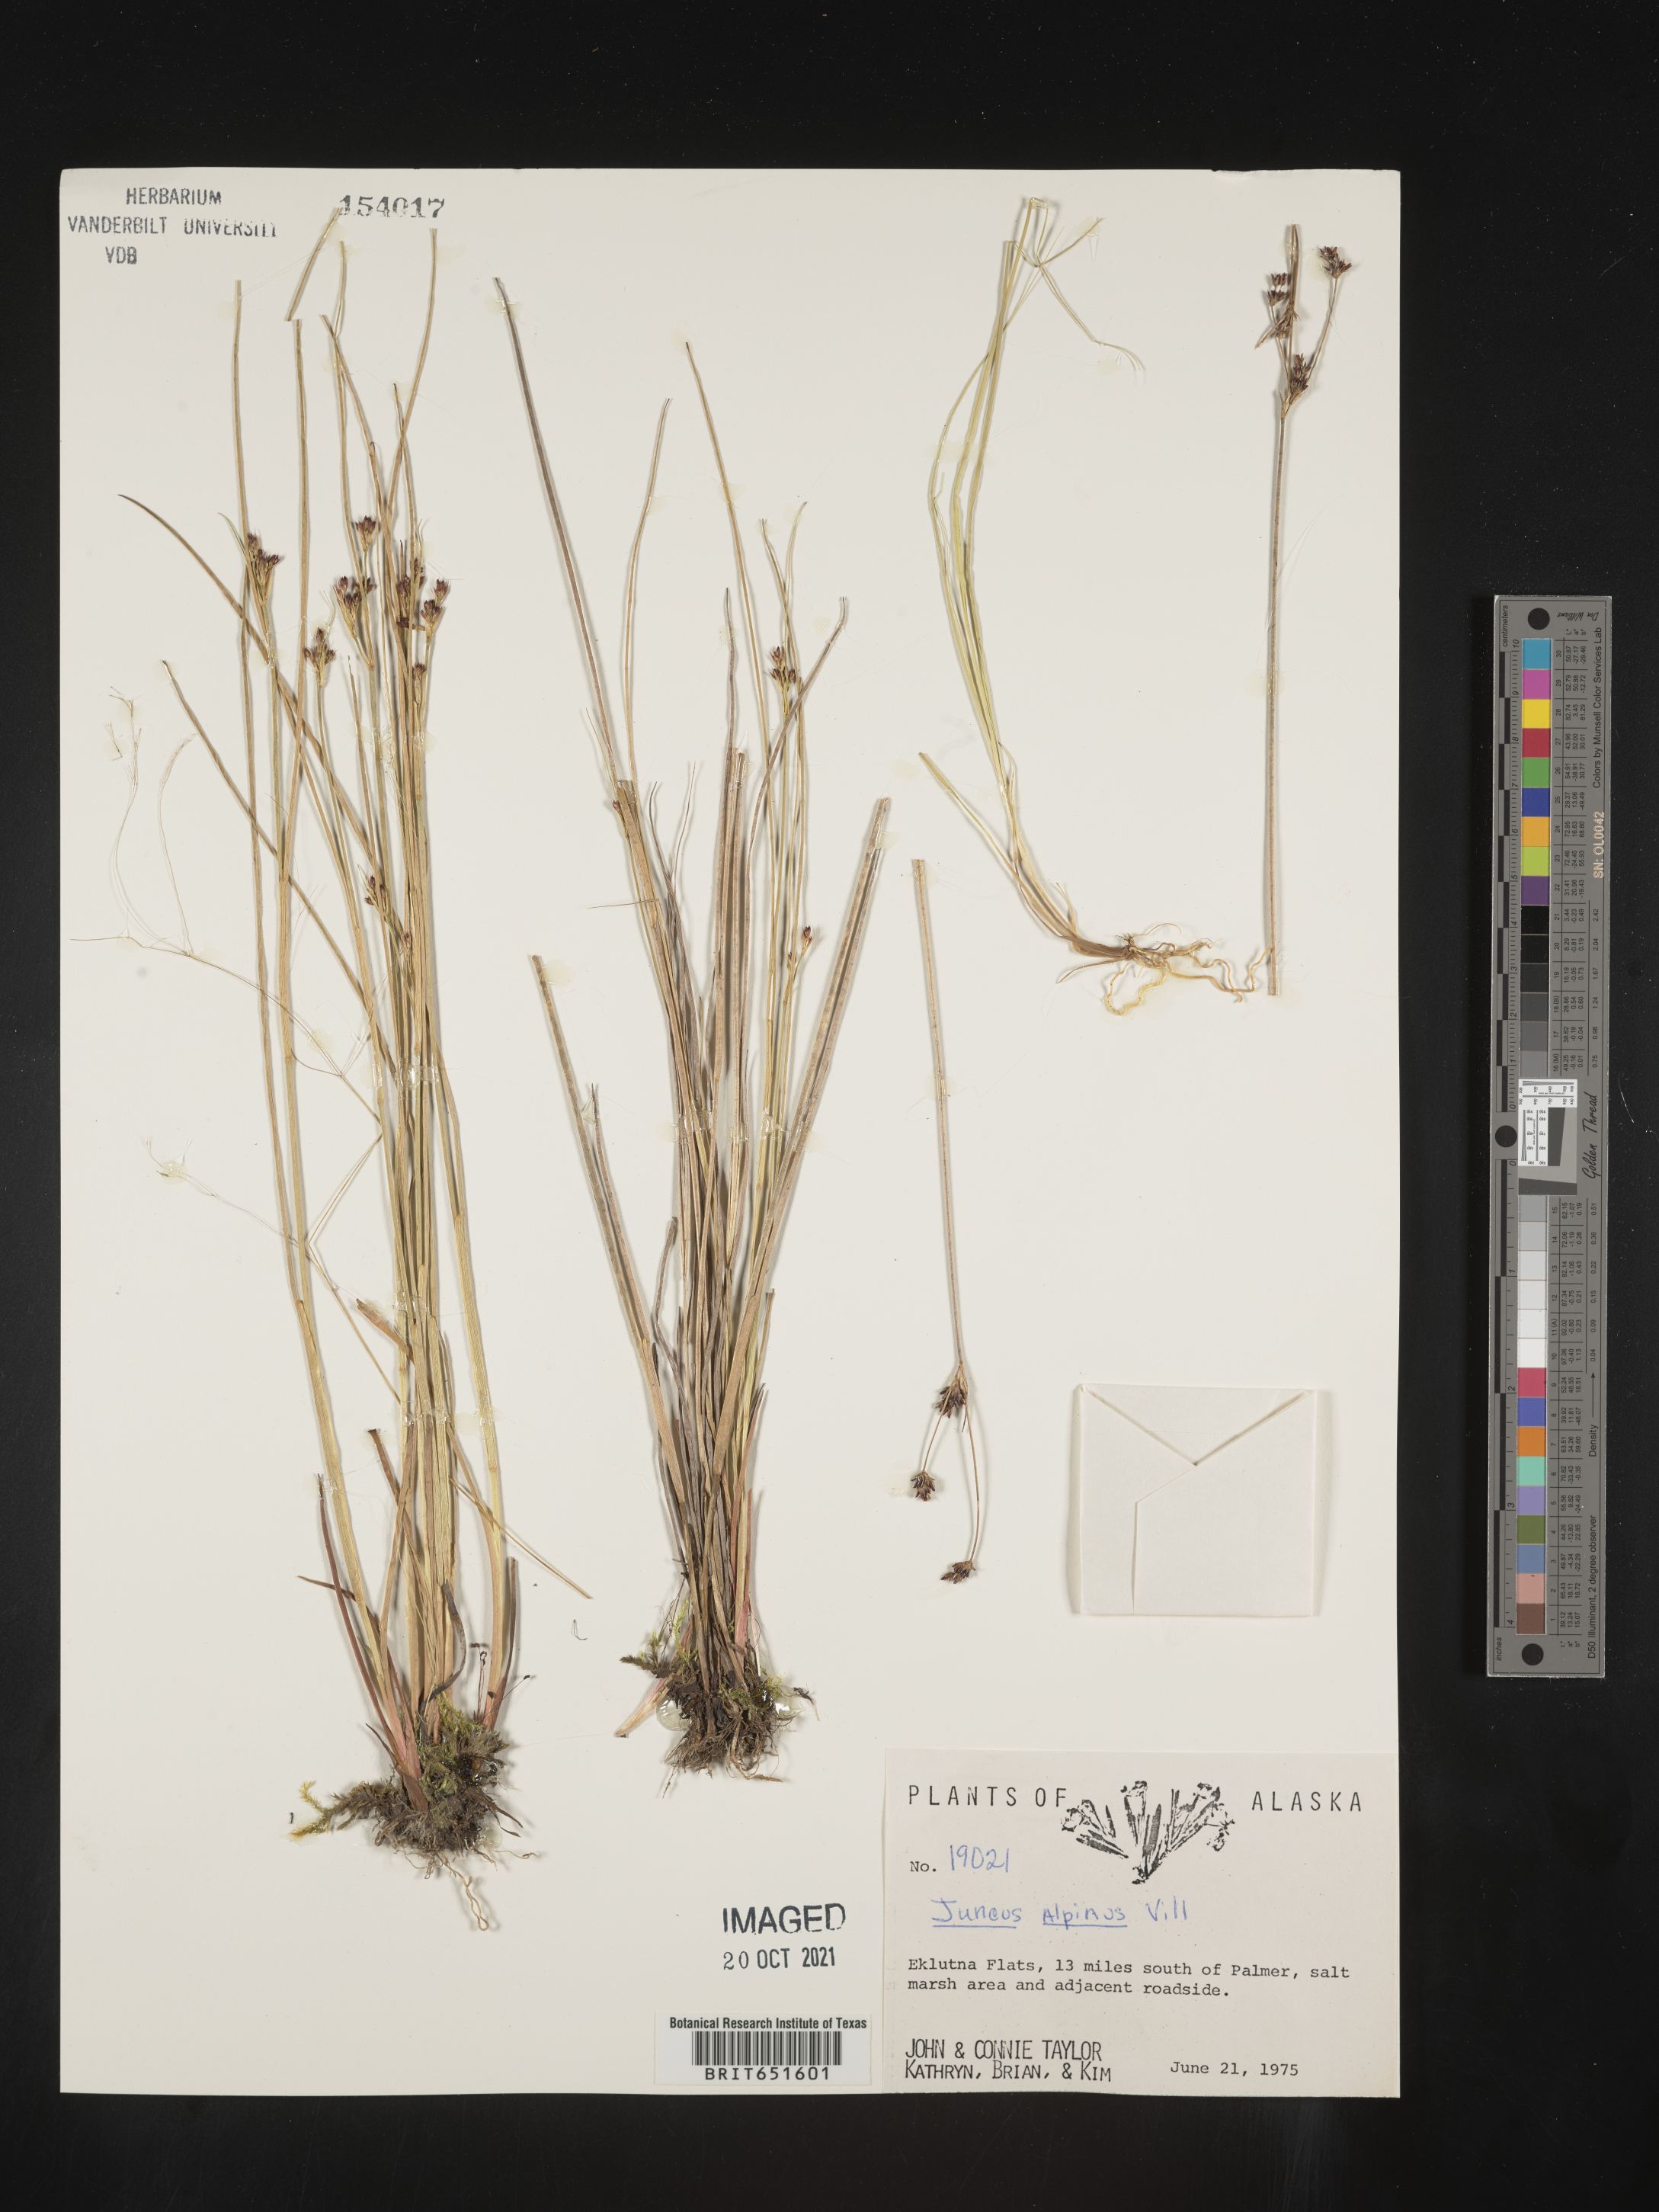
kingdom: Plantae
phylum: Tracheophyta
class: Liliopsida
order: Poales
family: Juncaceae
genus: Juncus
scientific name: Juncus alpinoarticulatus
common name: Alpine rush
